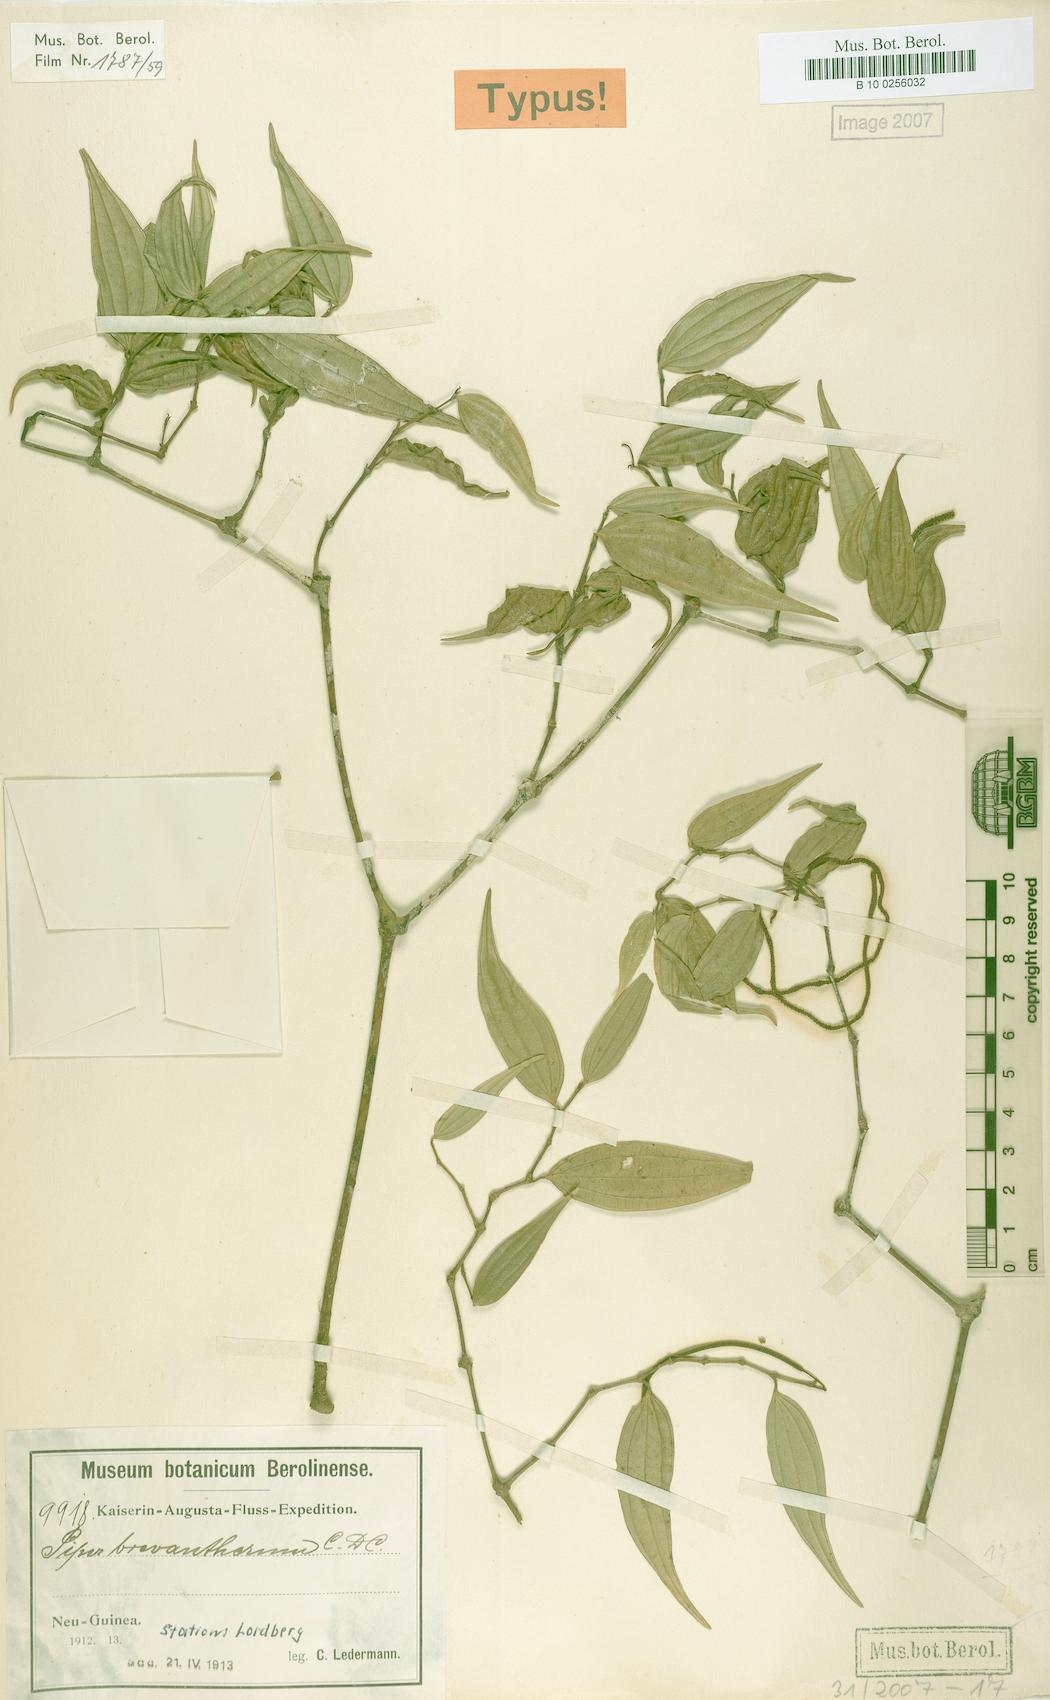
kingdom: Plantae
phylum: Tracheophyta
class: Magnoliopsida
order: Piperales
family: Piperaceae
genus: Piper
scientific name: Piper macropiper
